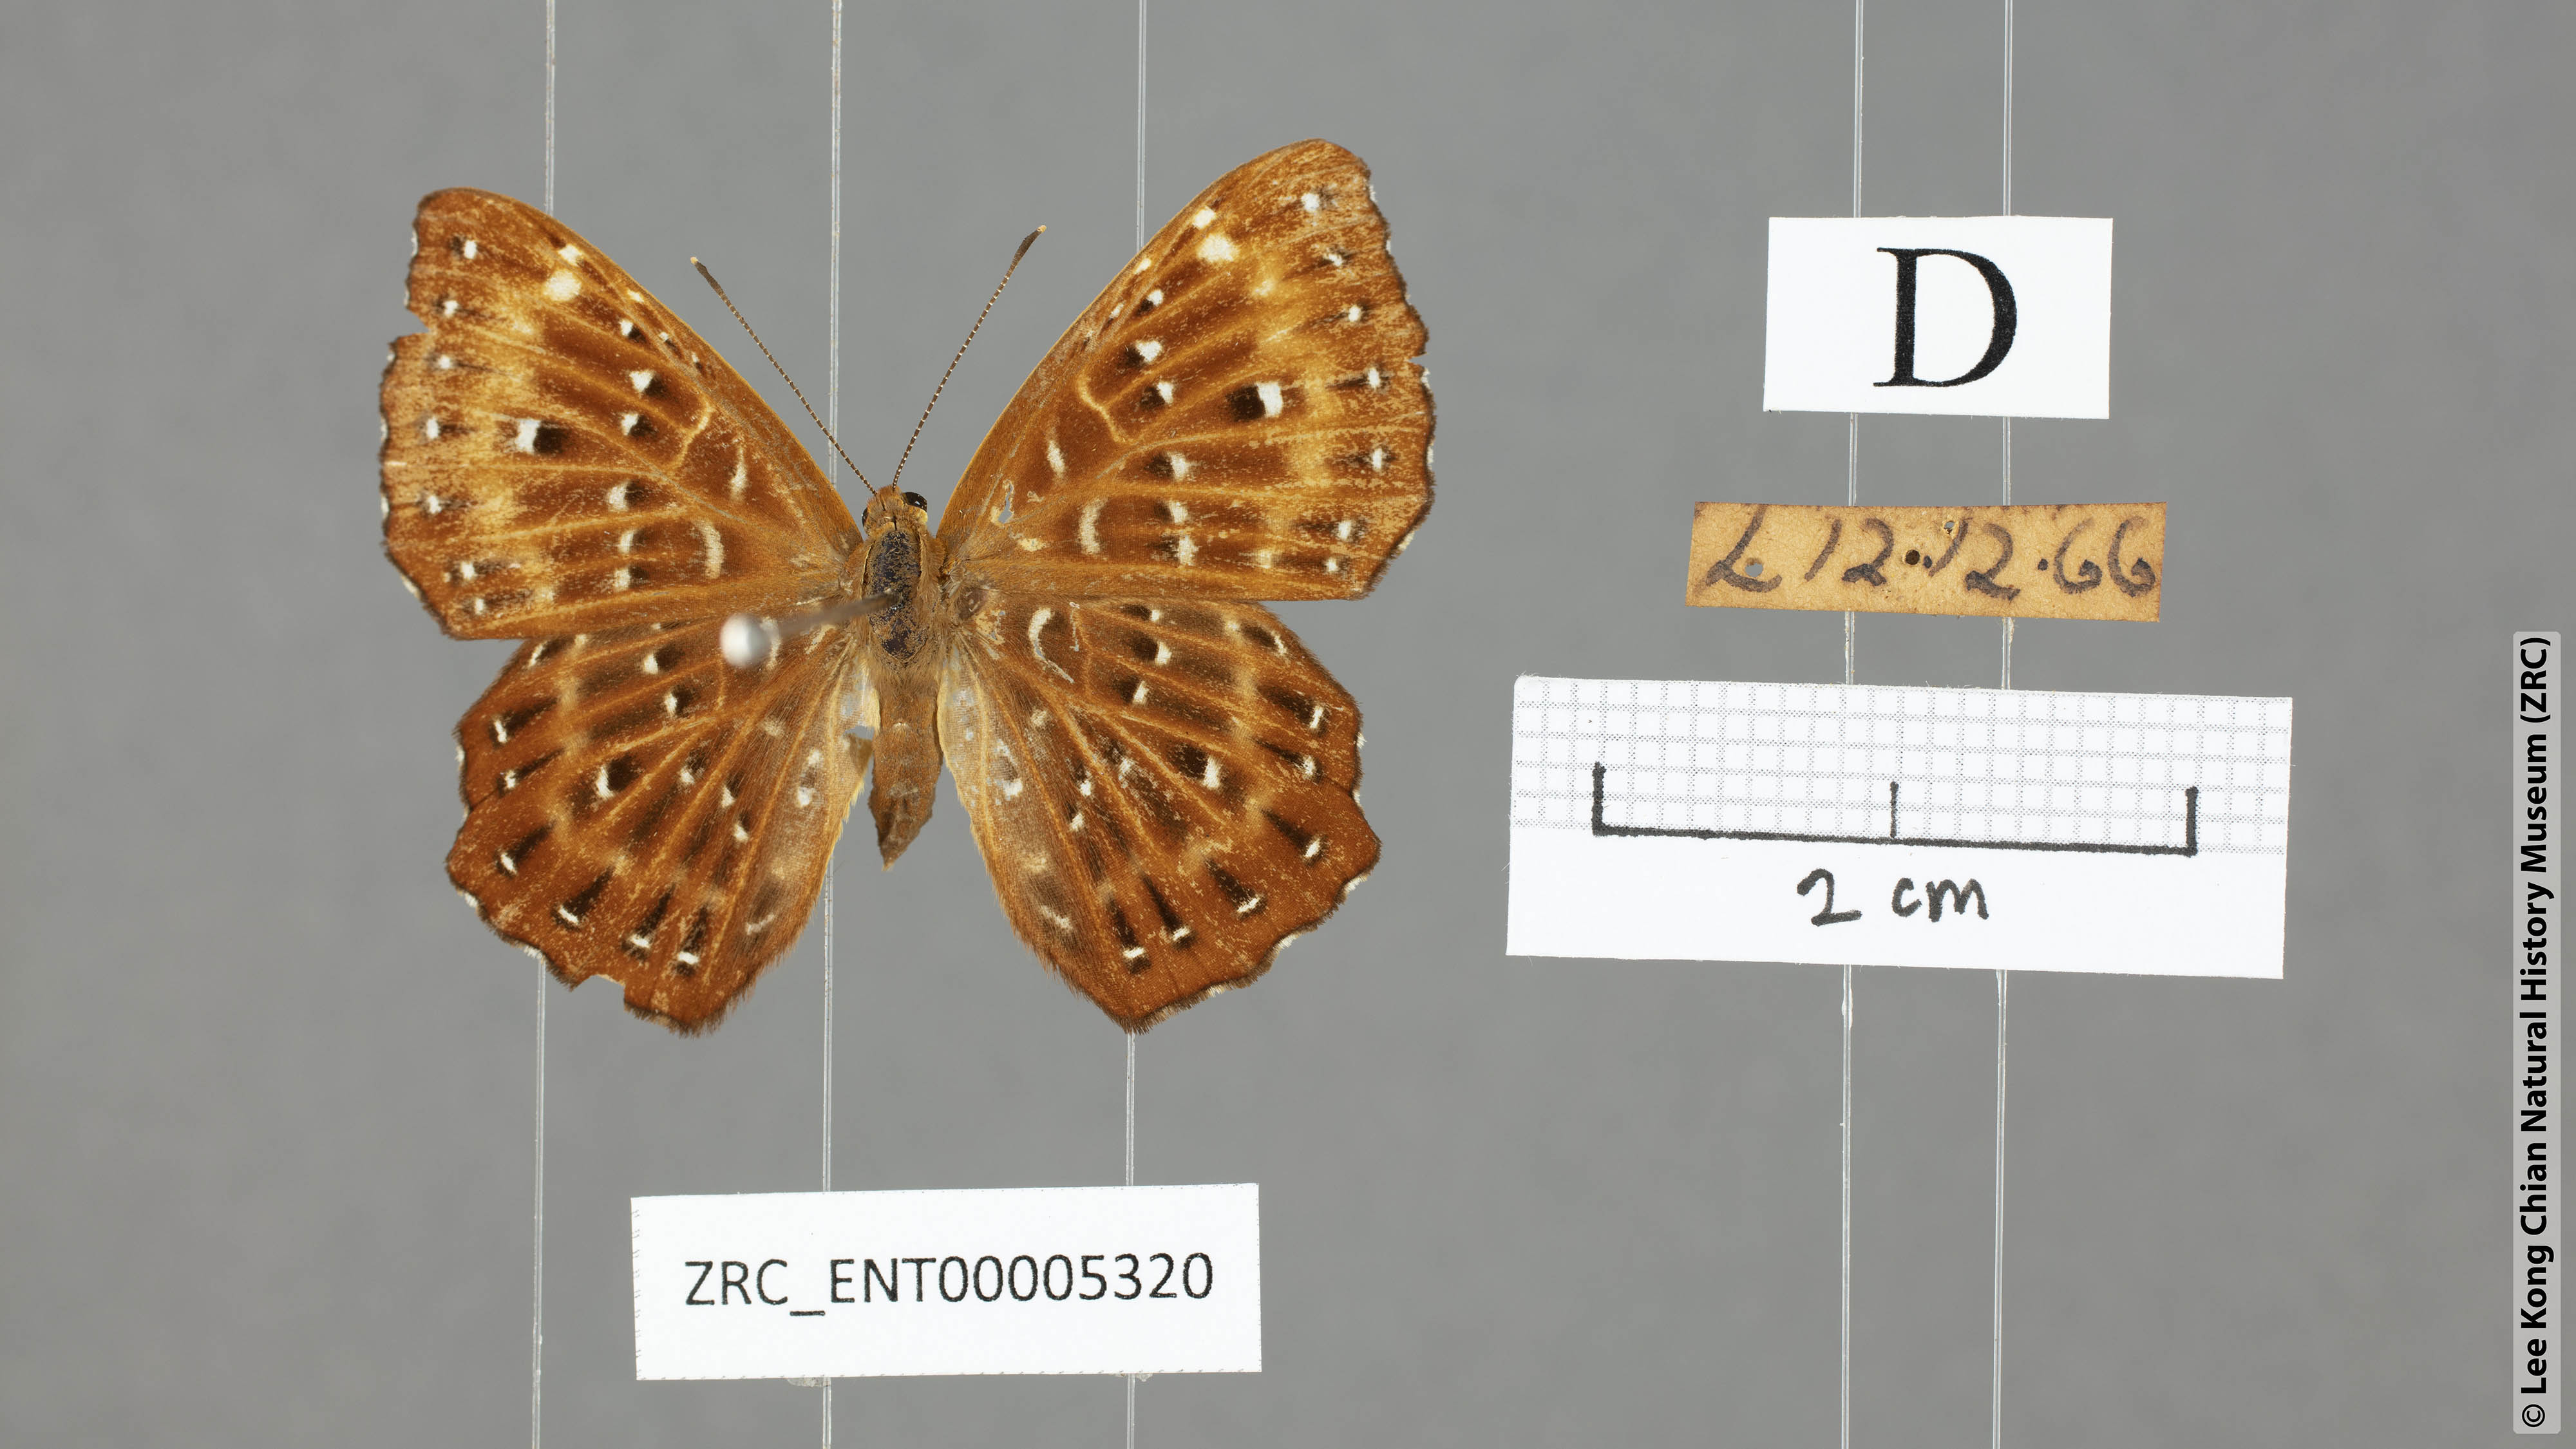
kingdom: Animalia
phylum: Arthropoda
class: Insecta
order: Lepidoptera
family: Riodinidae
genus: Zemeros
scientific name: Zemeros flegyas
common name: Punchinello
